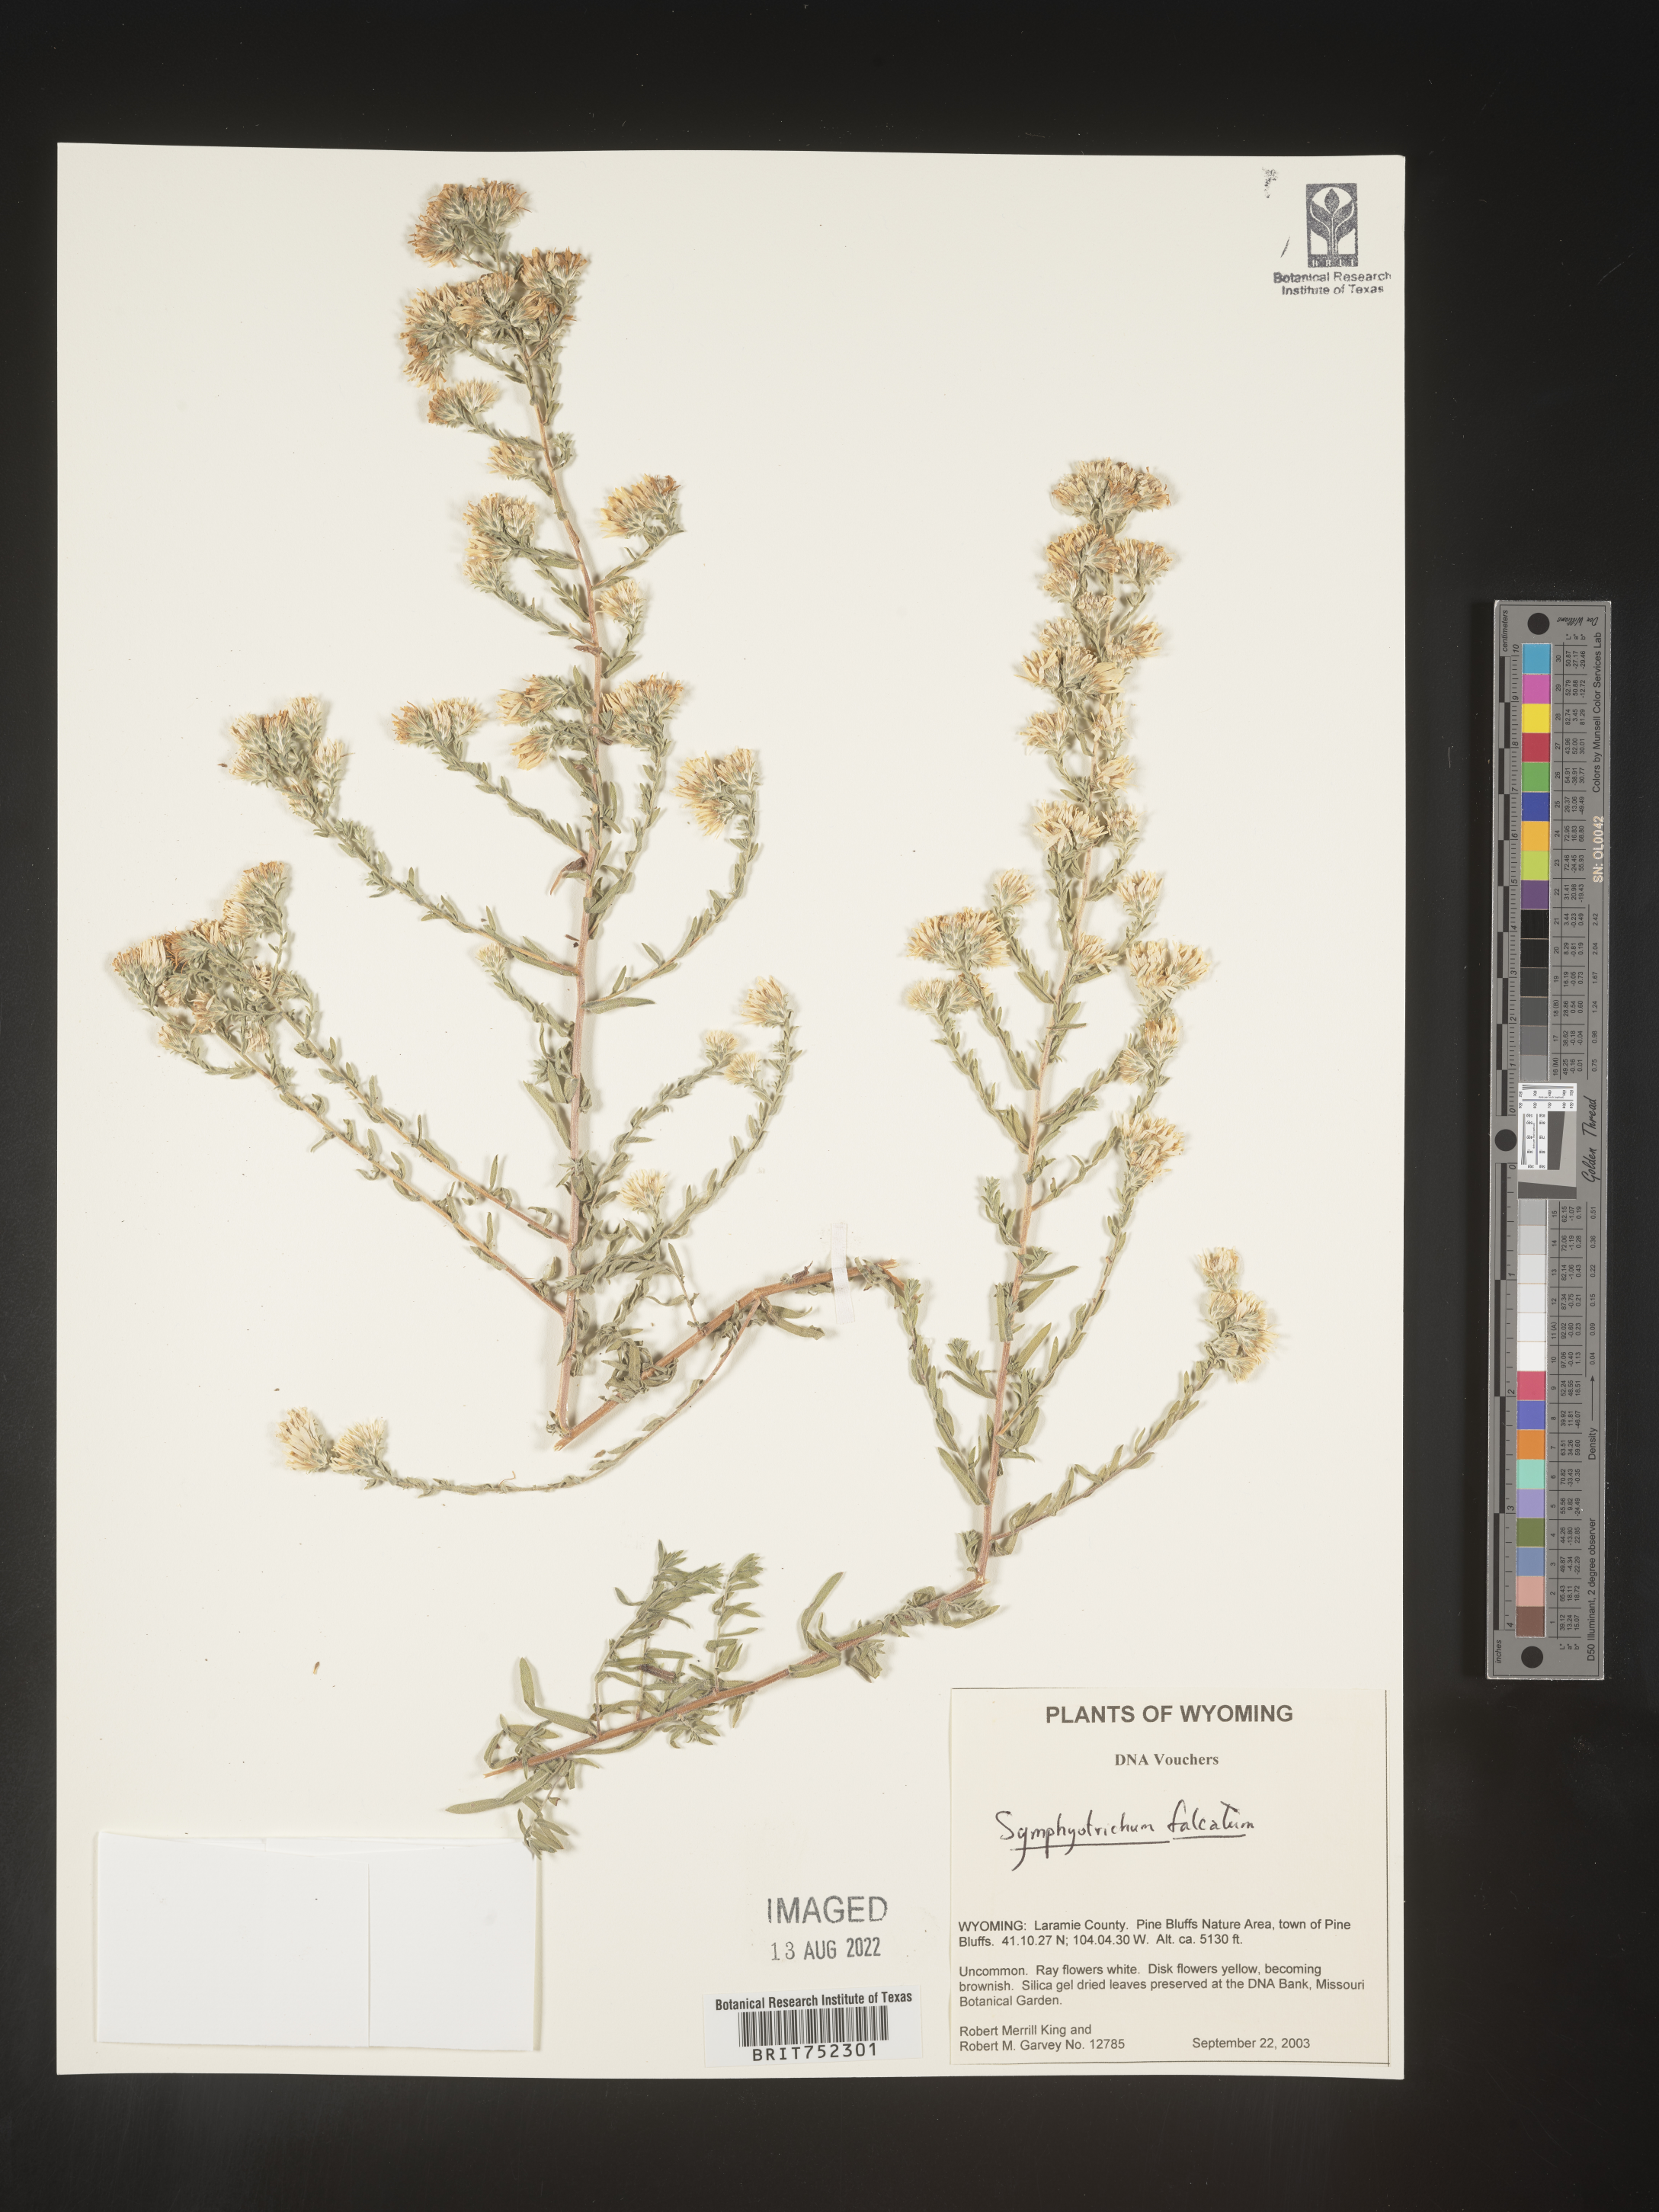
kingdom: Plantae
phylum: Tracheophyta
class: Magnoliopsida
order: Asterales
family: Asteraceae
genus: Symphyotrichum
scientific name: Symphyotrichum falcatum
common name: Creeping white prairie aster
